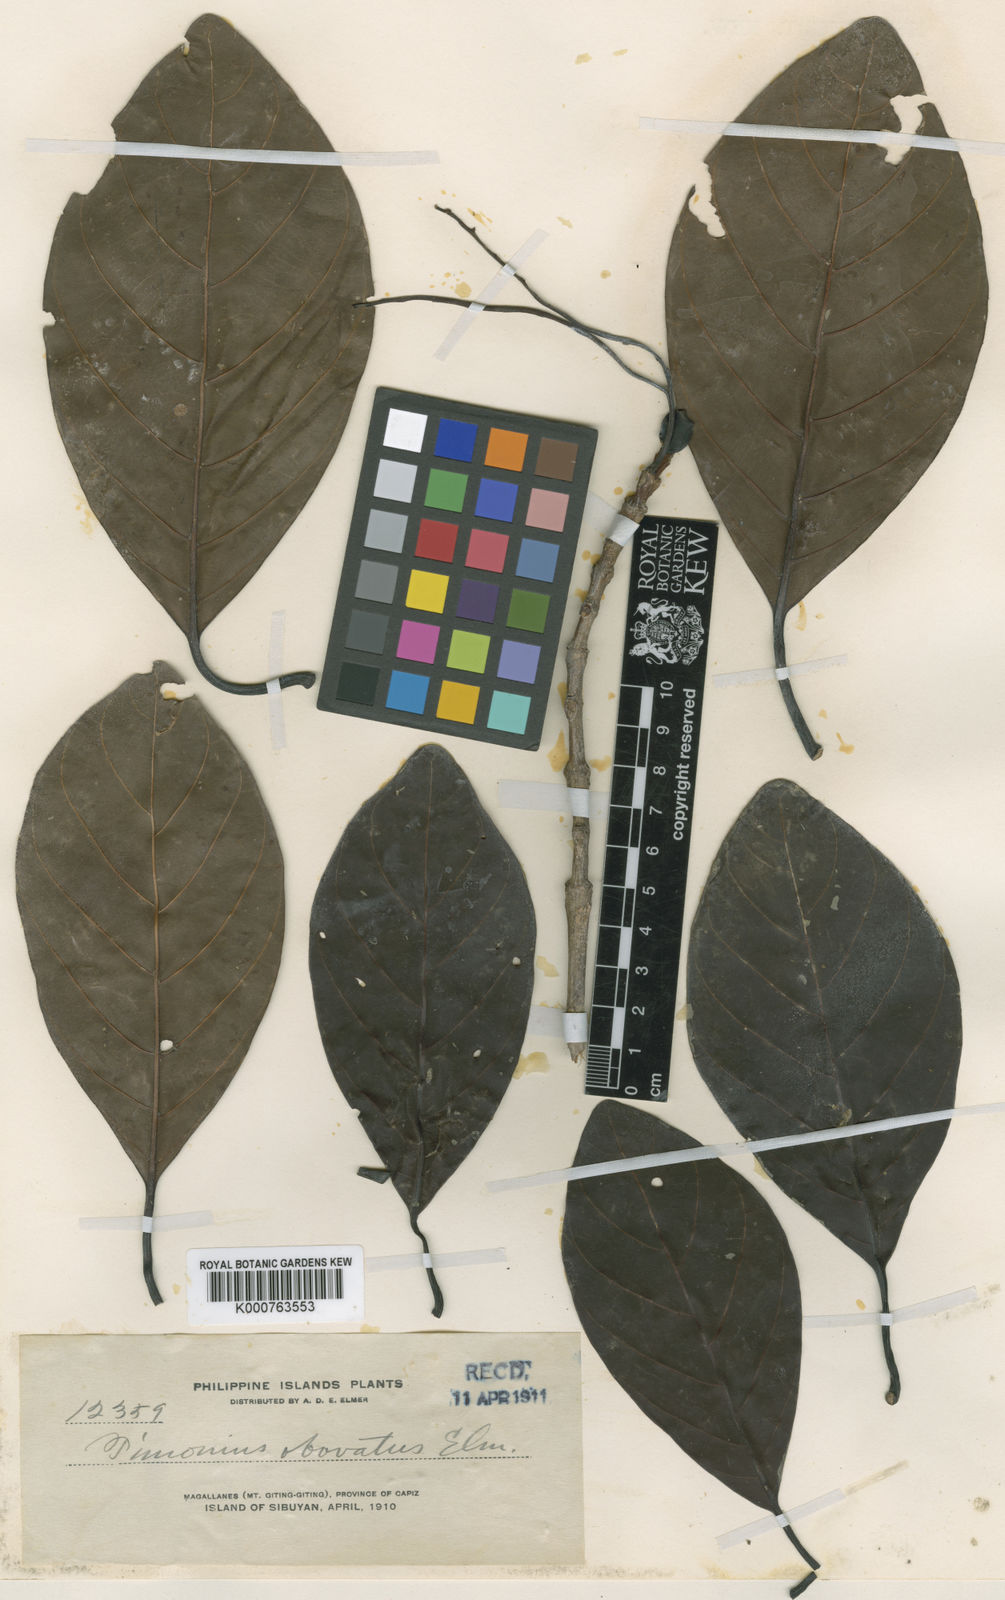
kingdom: Plantae
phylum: Tracheophyta
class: Magnoliopsida
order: Gentianales
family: Rubiaceae
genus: Timonius
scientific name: Timonius obovatus
